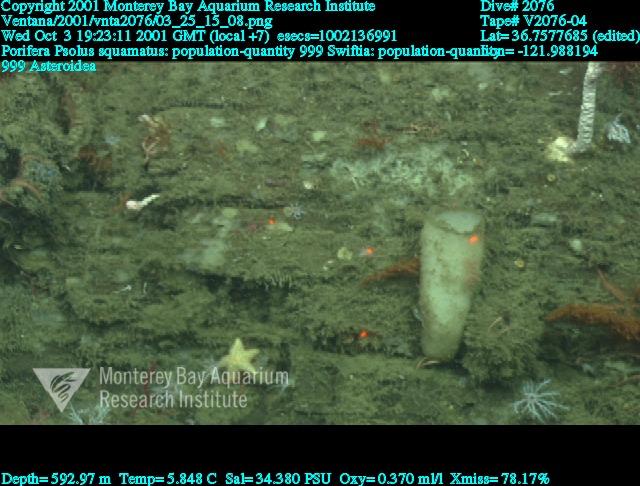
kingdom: Animalia
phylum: Porifera
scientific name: Porifera
